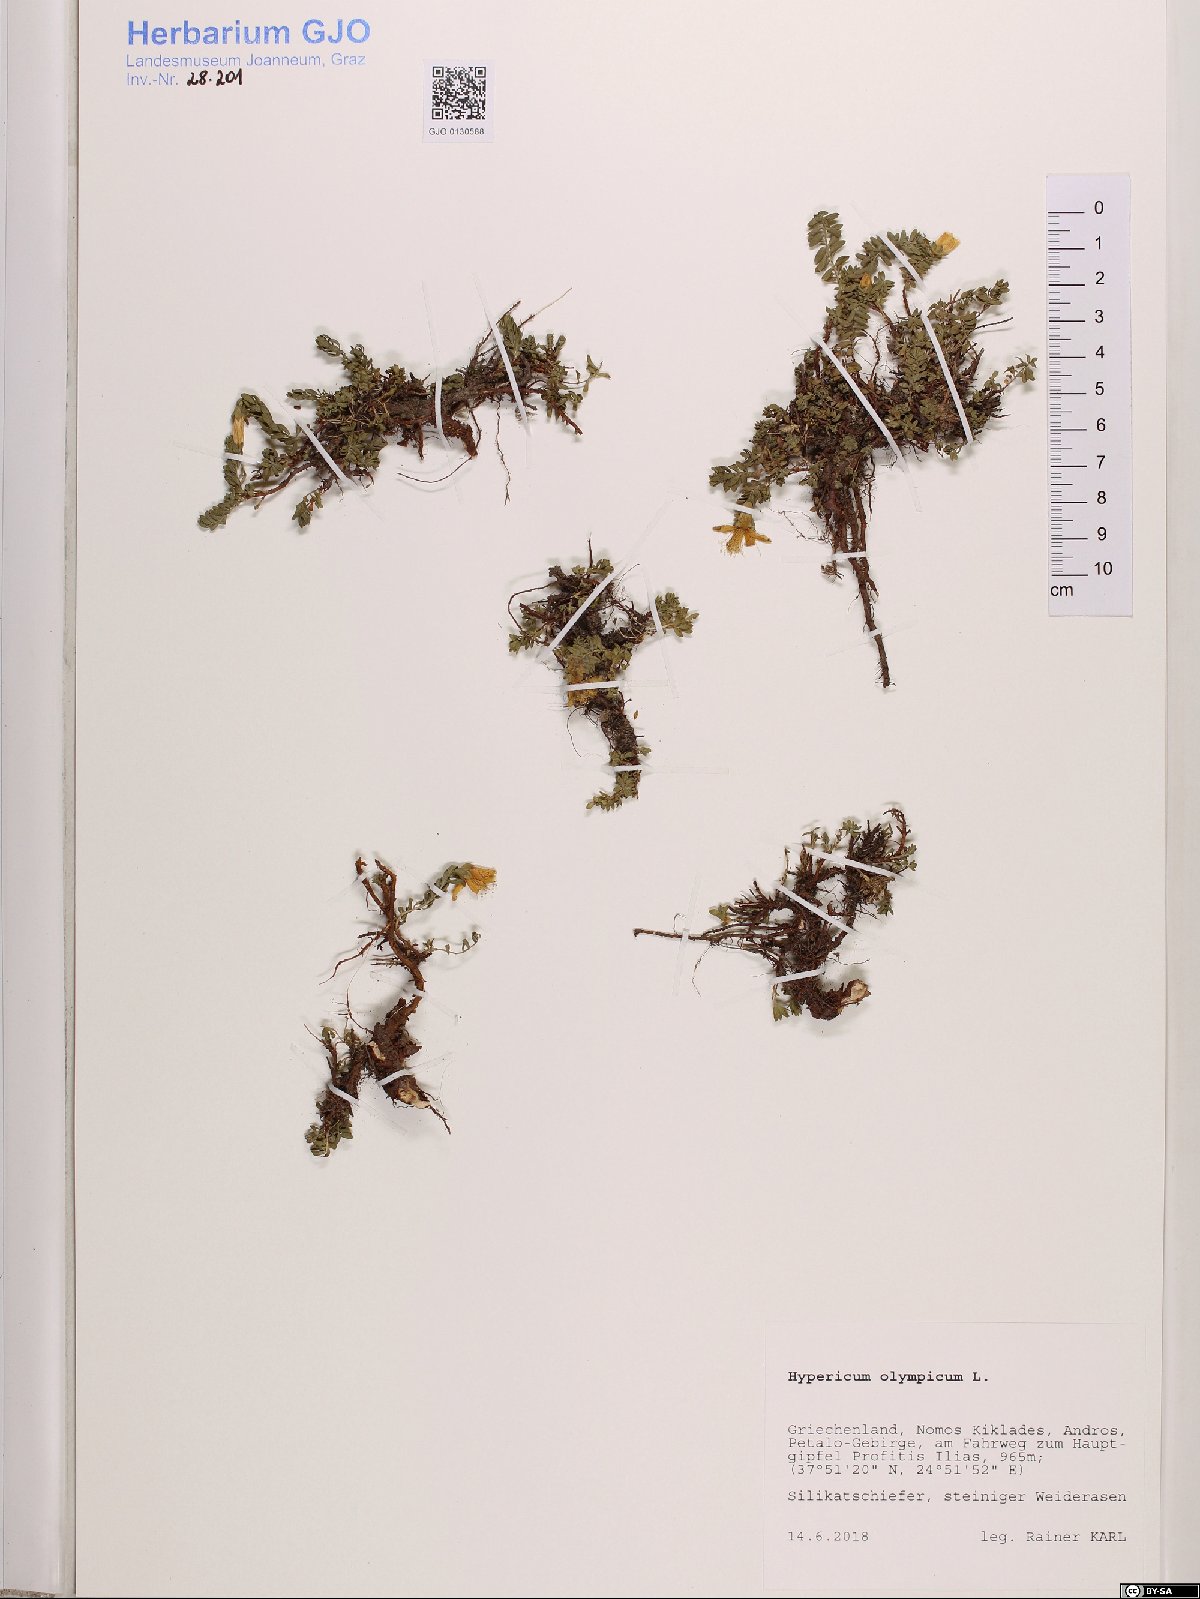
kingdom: Plantae
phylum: Tracheophyta
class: Magnoliopsida
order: Malpighiales
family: Hypericaceae
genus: Hypericum
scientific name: Hypericum olympicum
